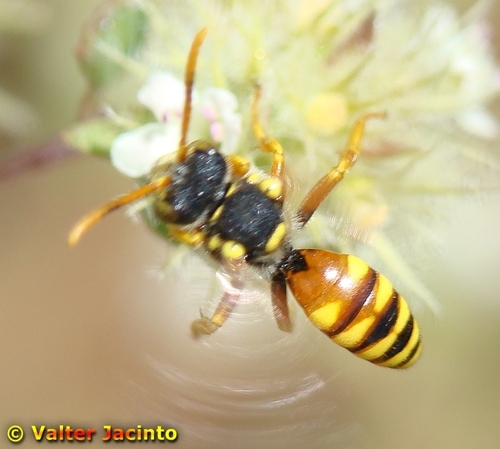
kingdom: Animalia
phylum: Arthropoda
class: Insecta
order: Hymenoptera
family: Apidae
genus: Nomada
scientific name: Nomada bifasciata
